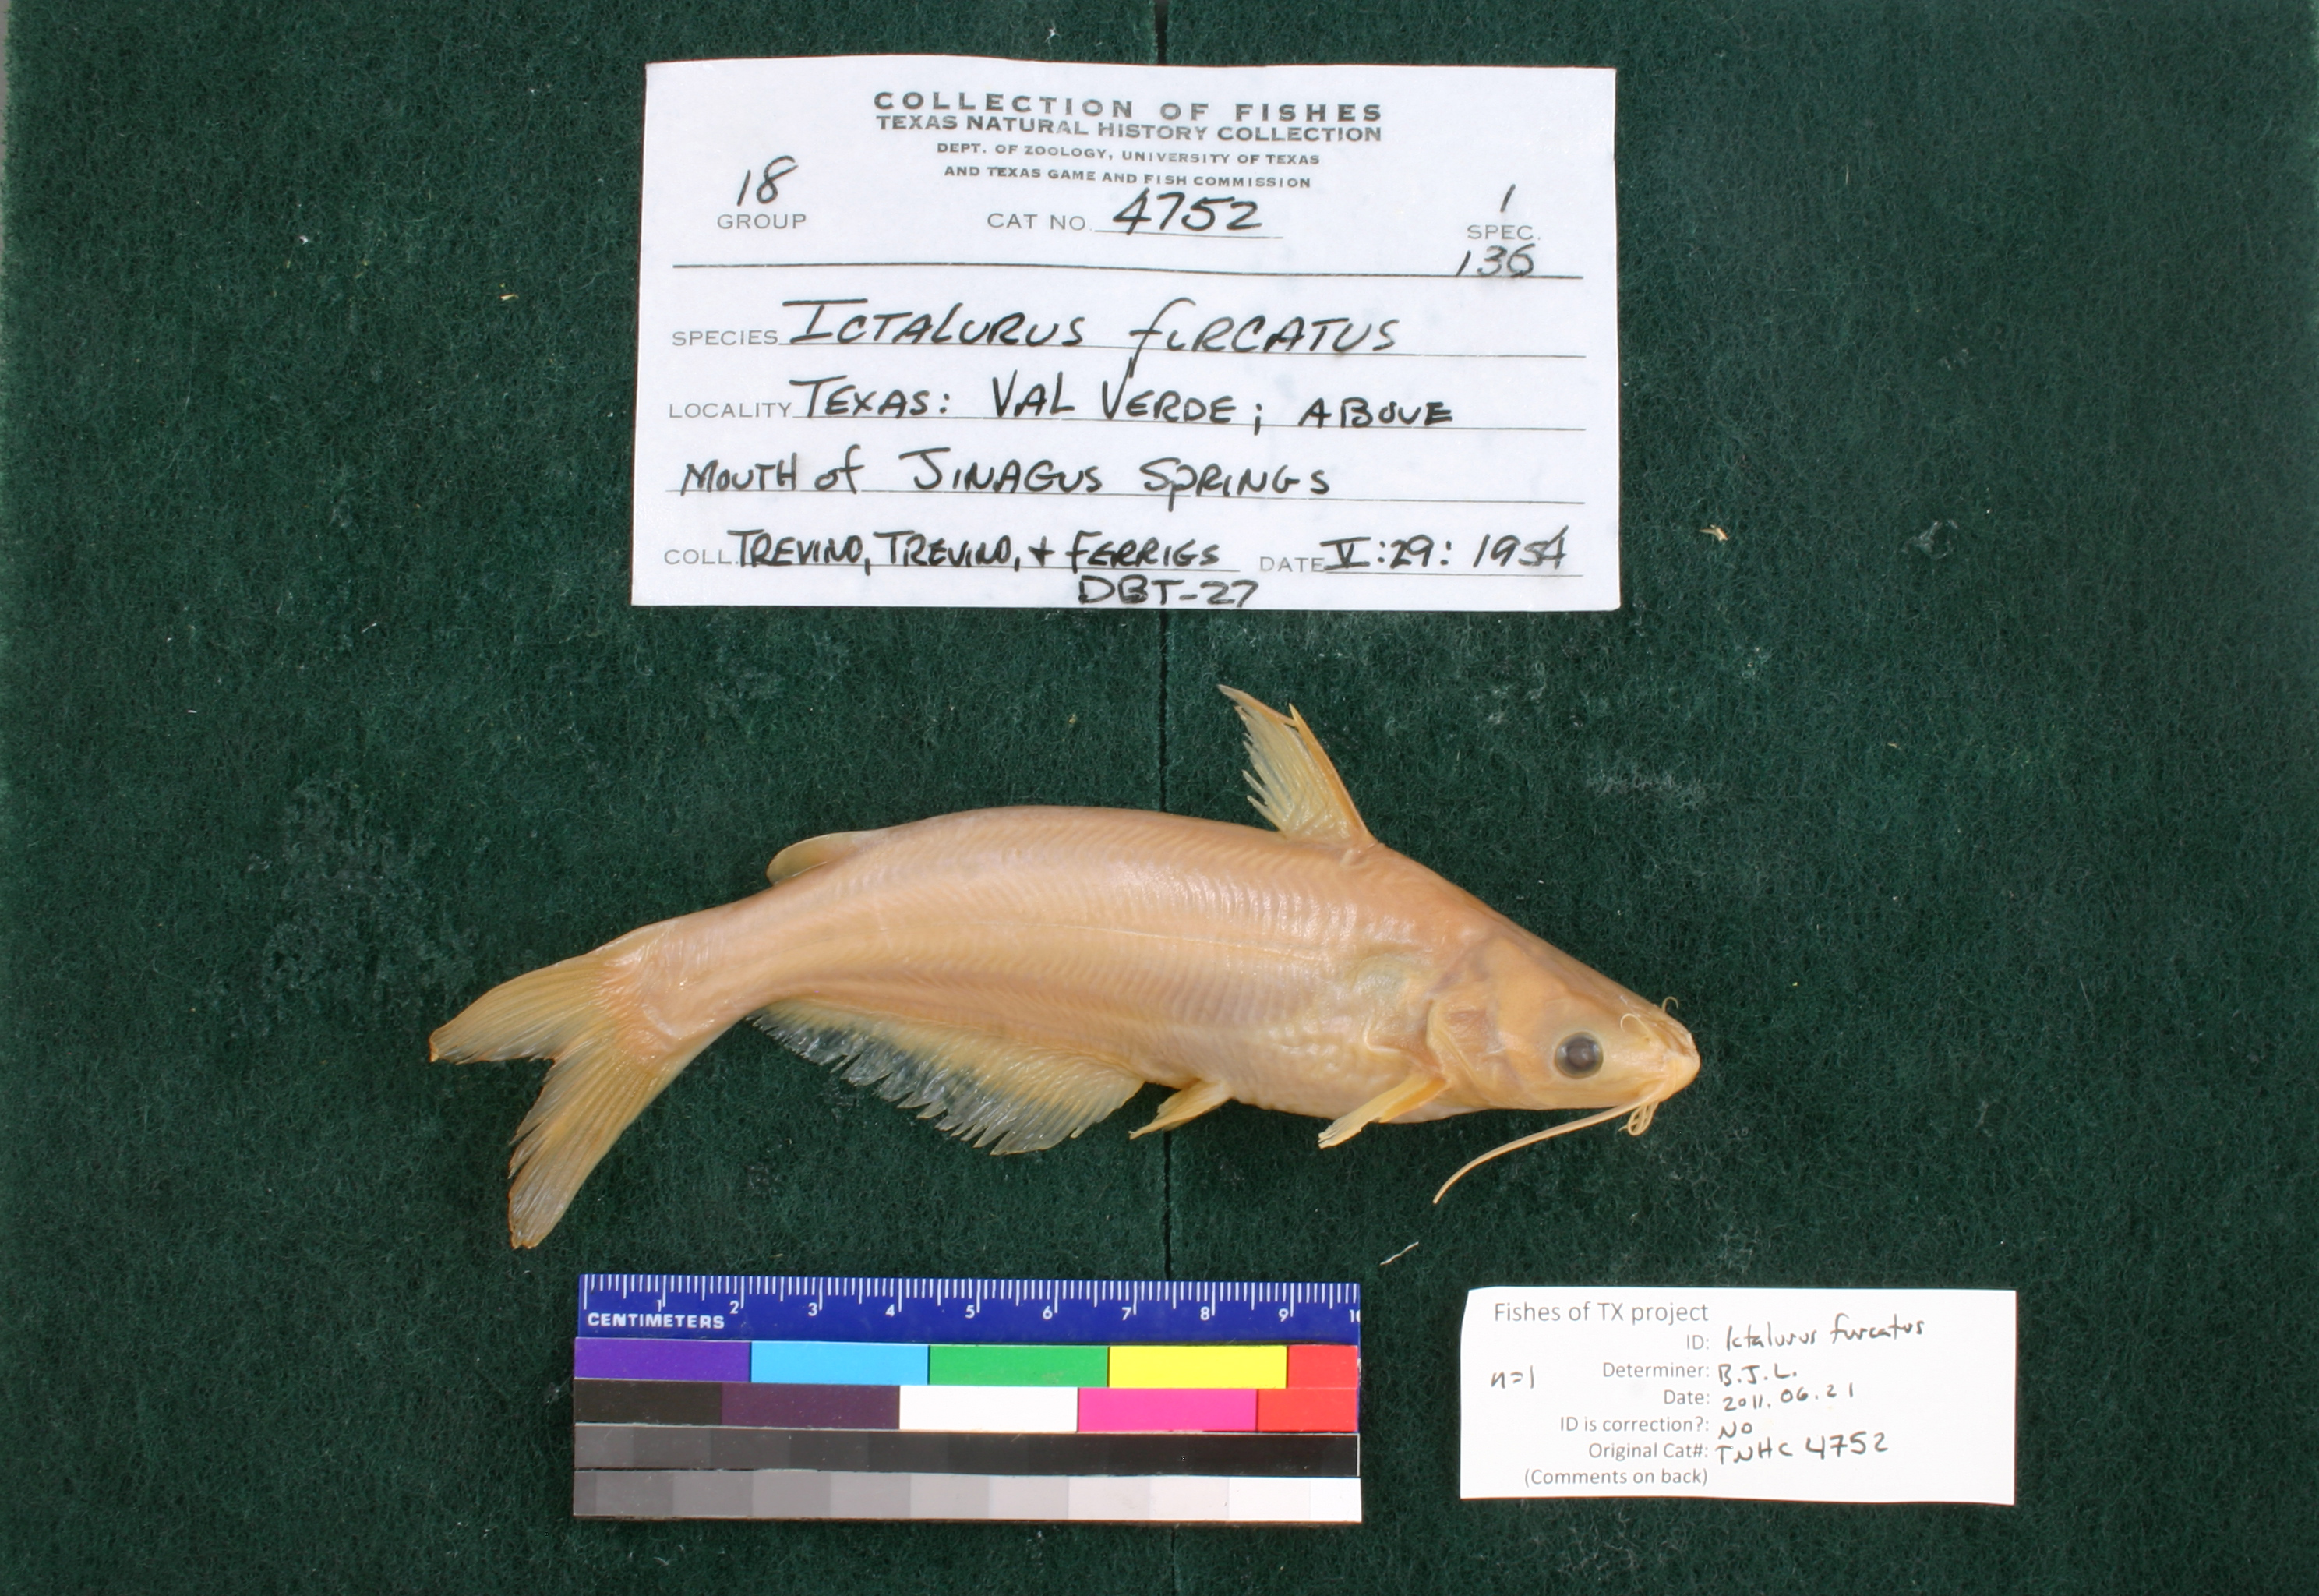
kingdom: Animalia
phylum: Chordata
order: Siluriformes
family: Ictaluridae
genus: Ictalurus
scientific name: Ictalurus furcatus
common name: Blue catfish
